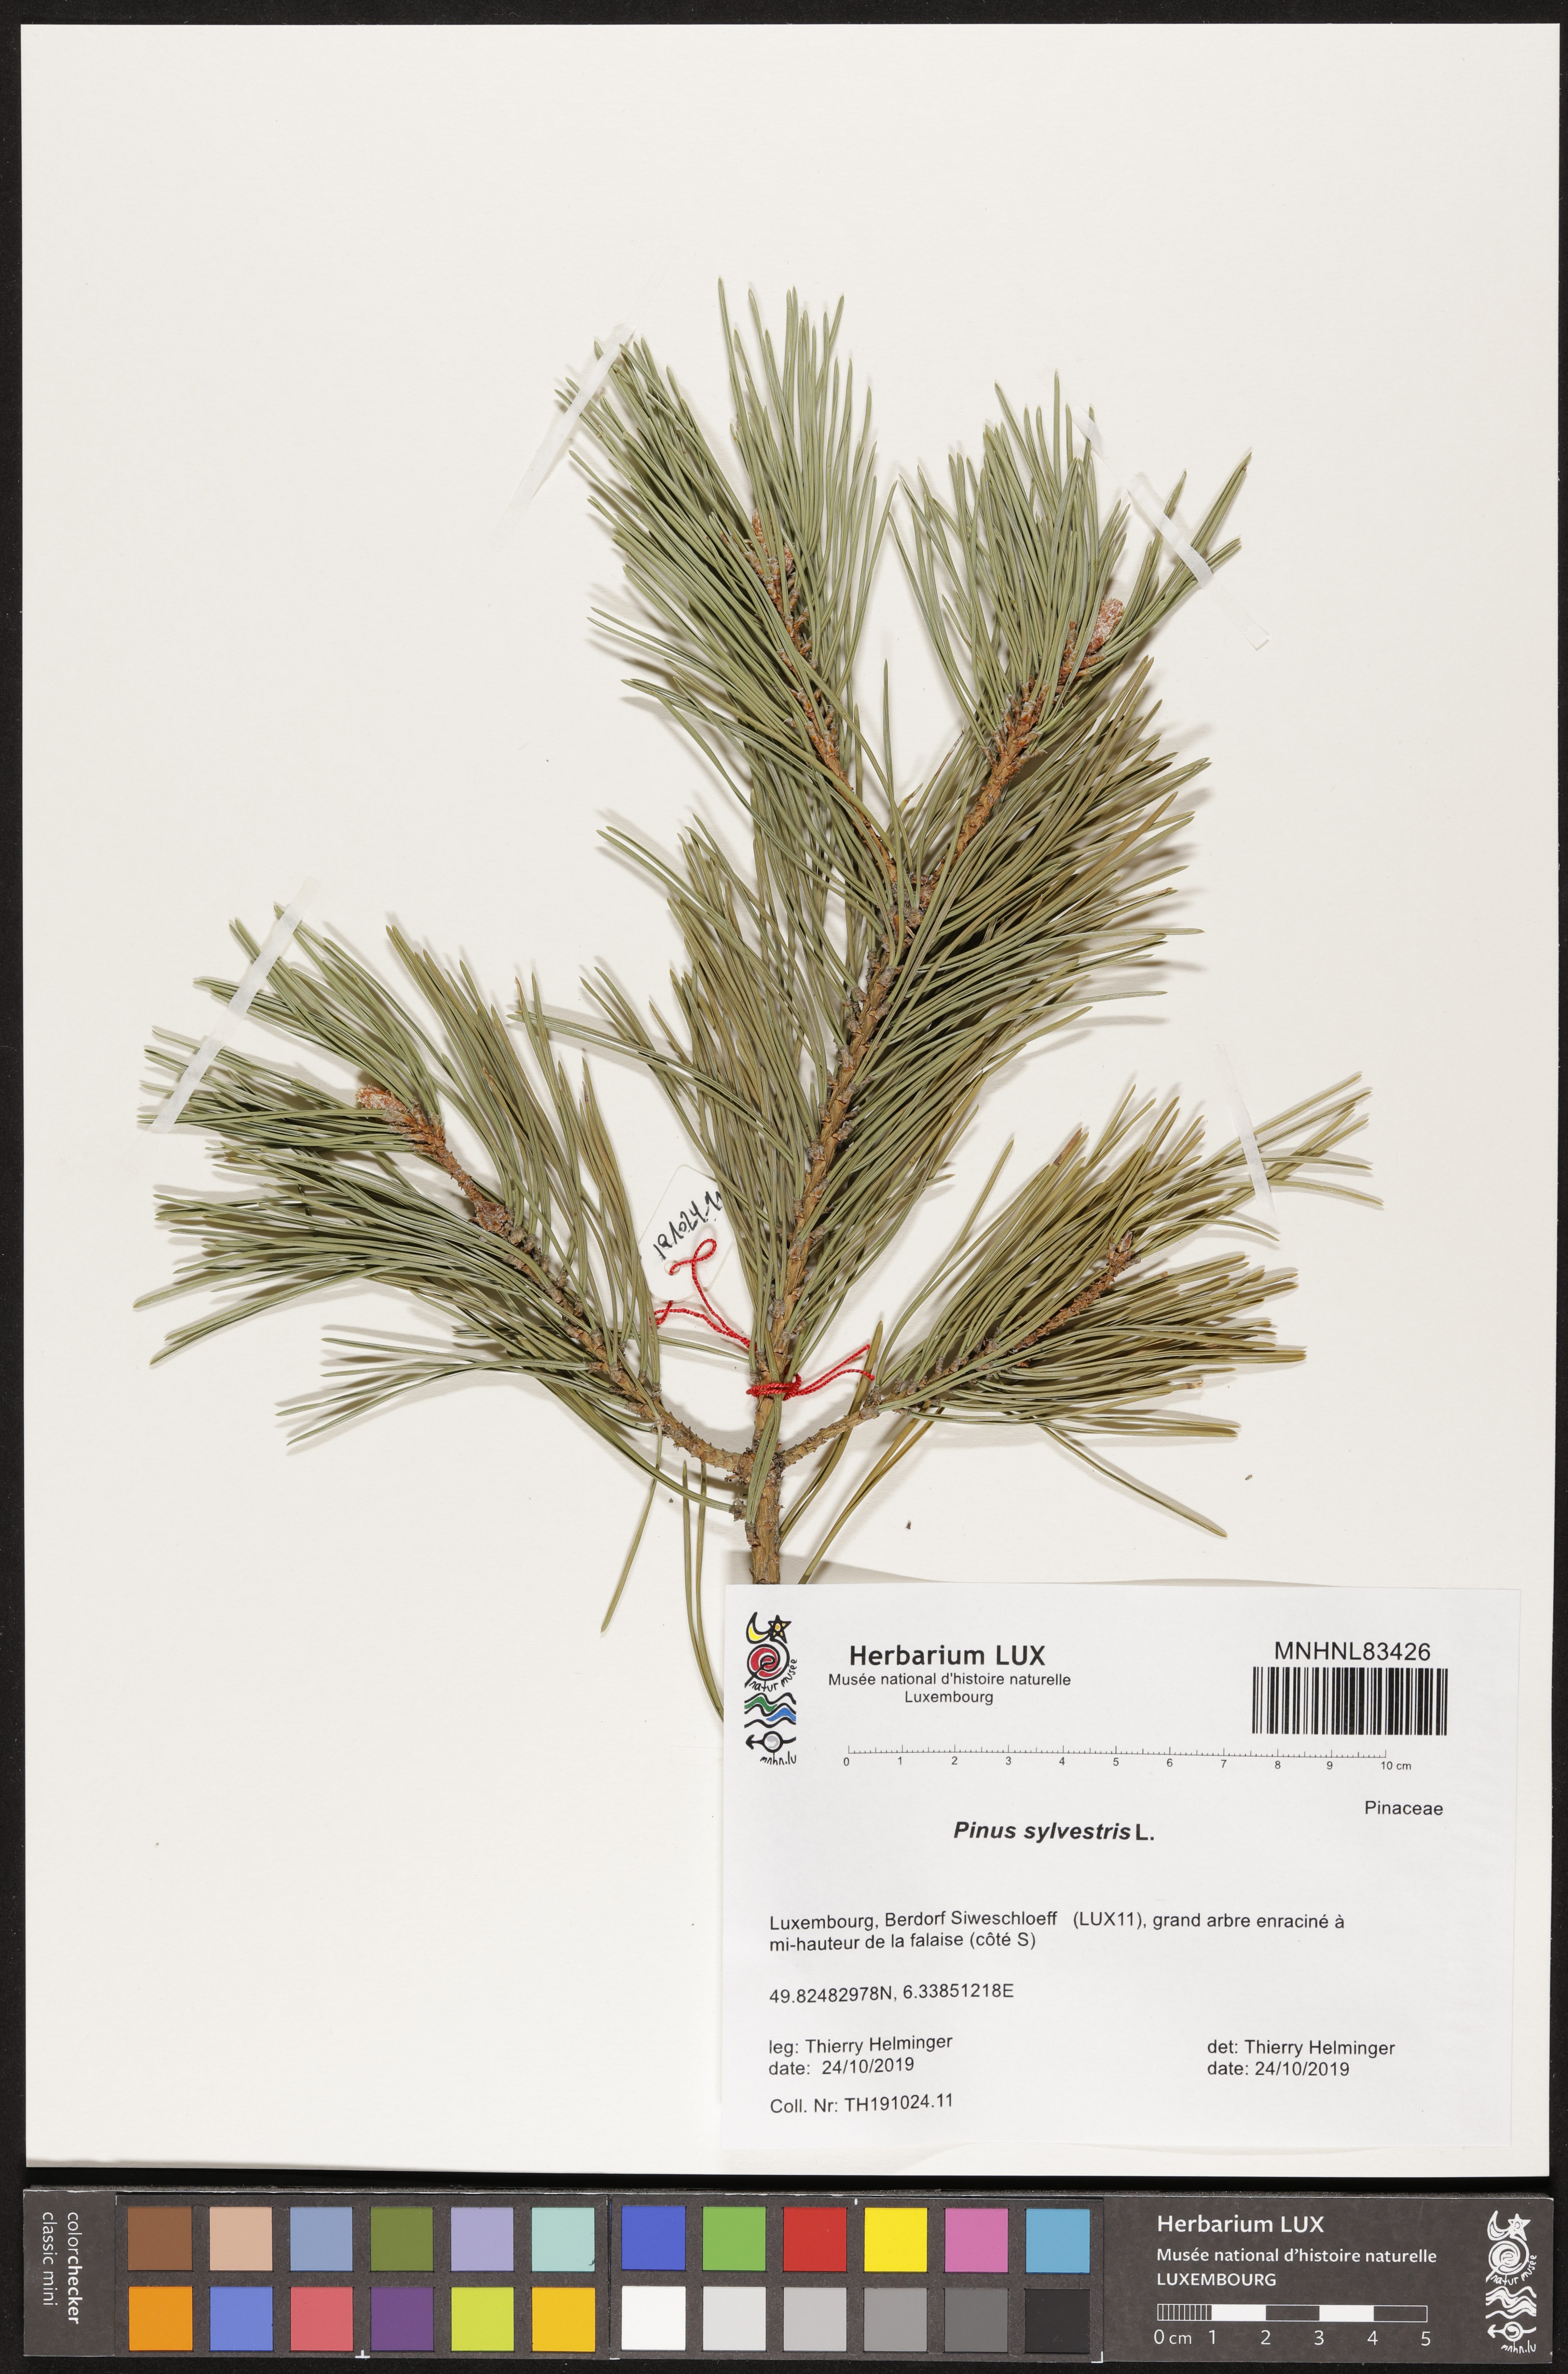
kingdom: Plantae
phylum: Tracheophyta
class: Pinopsida
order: Pinales
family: Pinaceae
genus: Pinus
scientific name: Pinus sylvestris
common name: Scots pine
